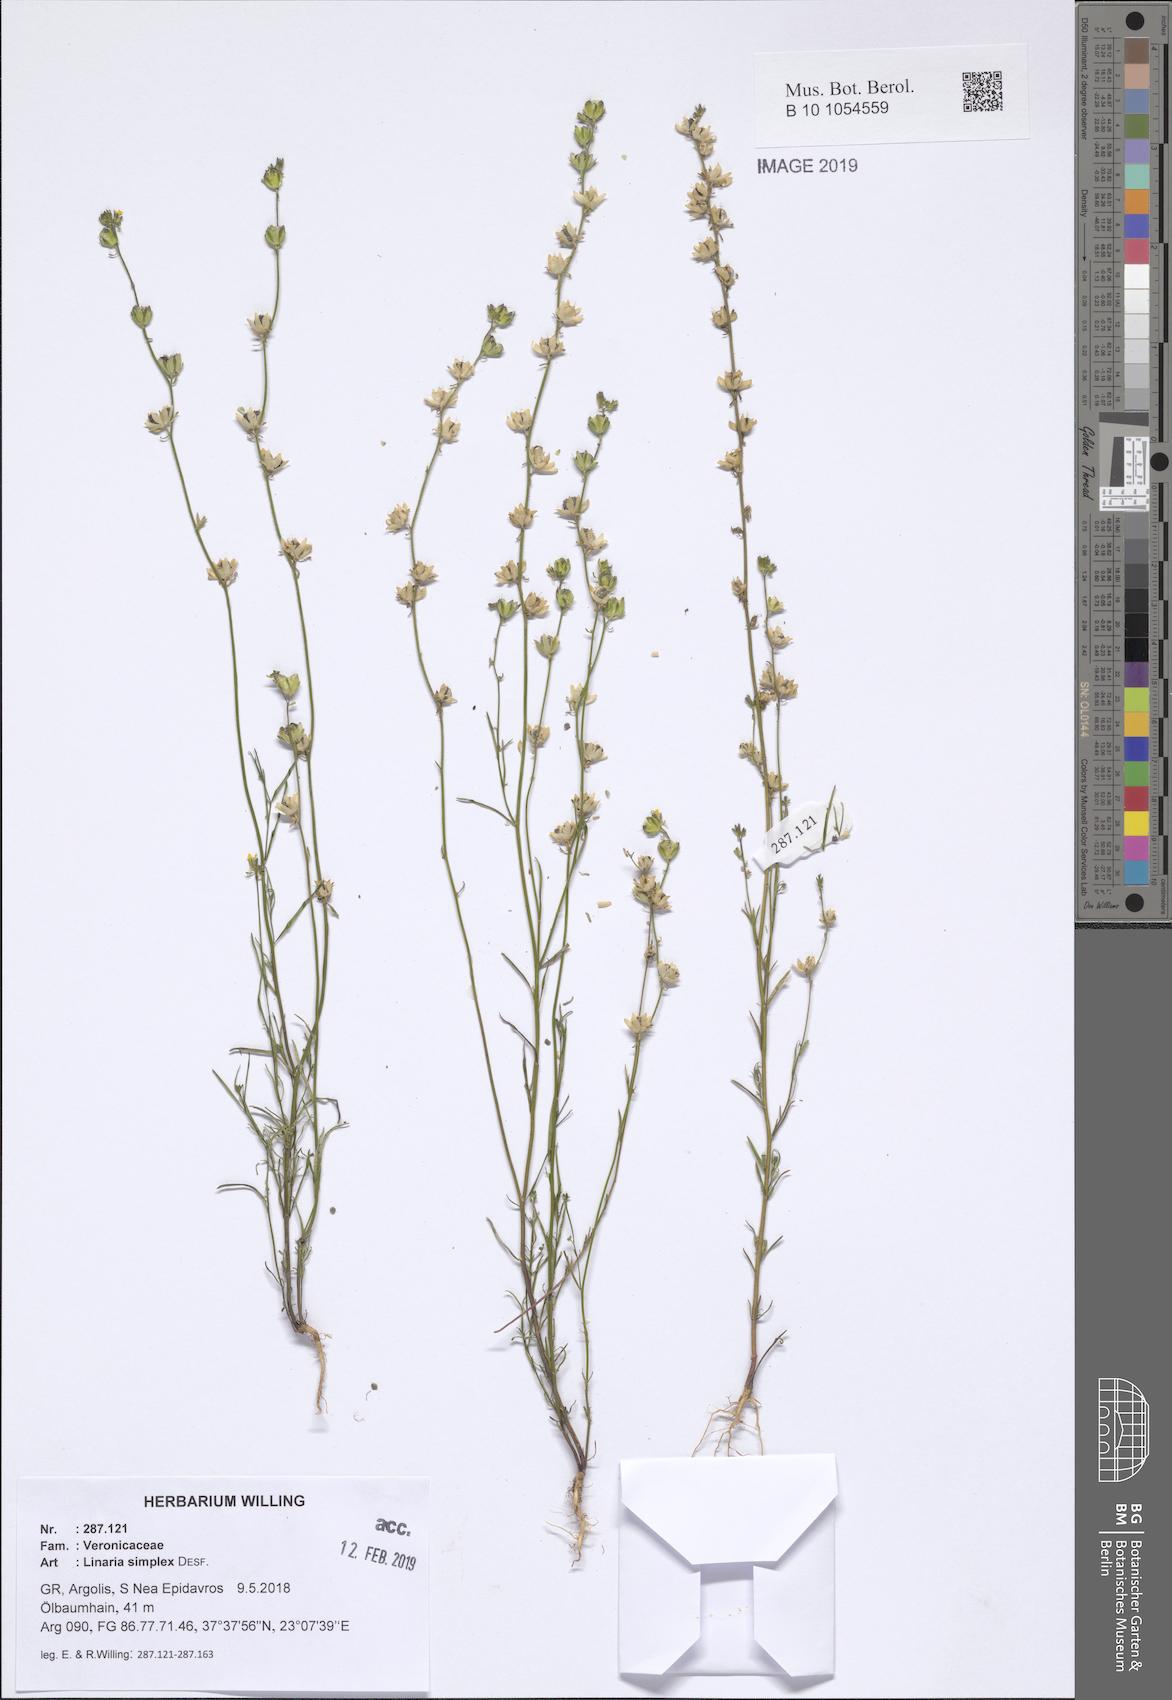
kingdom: Plantae
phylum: Tracheophyta
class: Magnoliopsida
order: Lamiales
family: Plantaginaceae
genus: Linaria
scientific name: Linaria simplex
